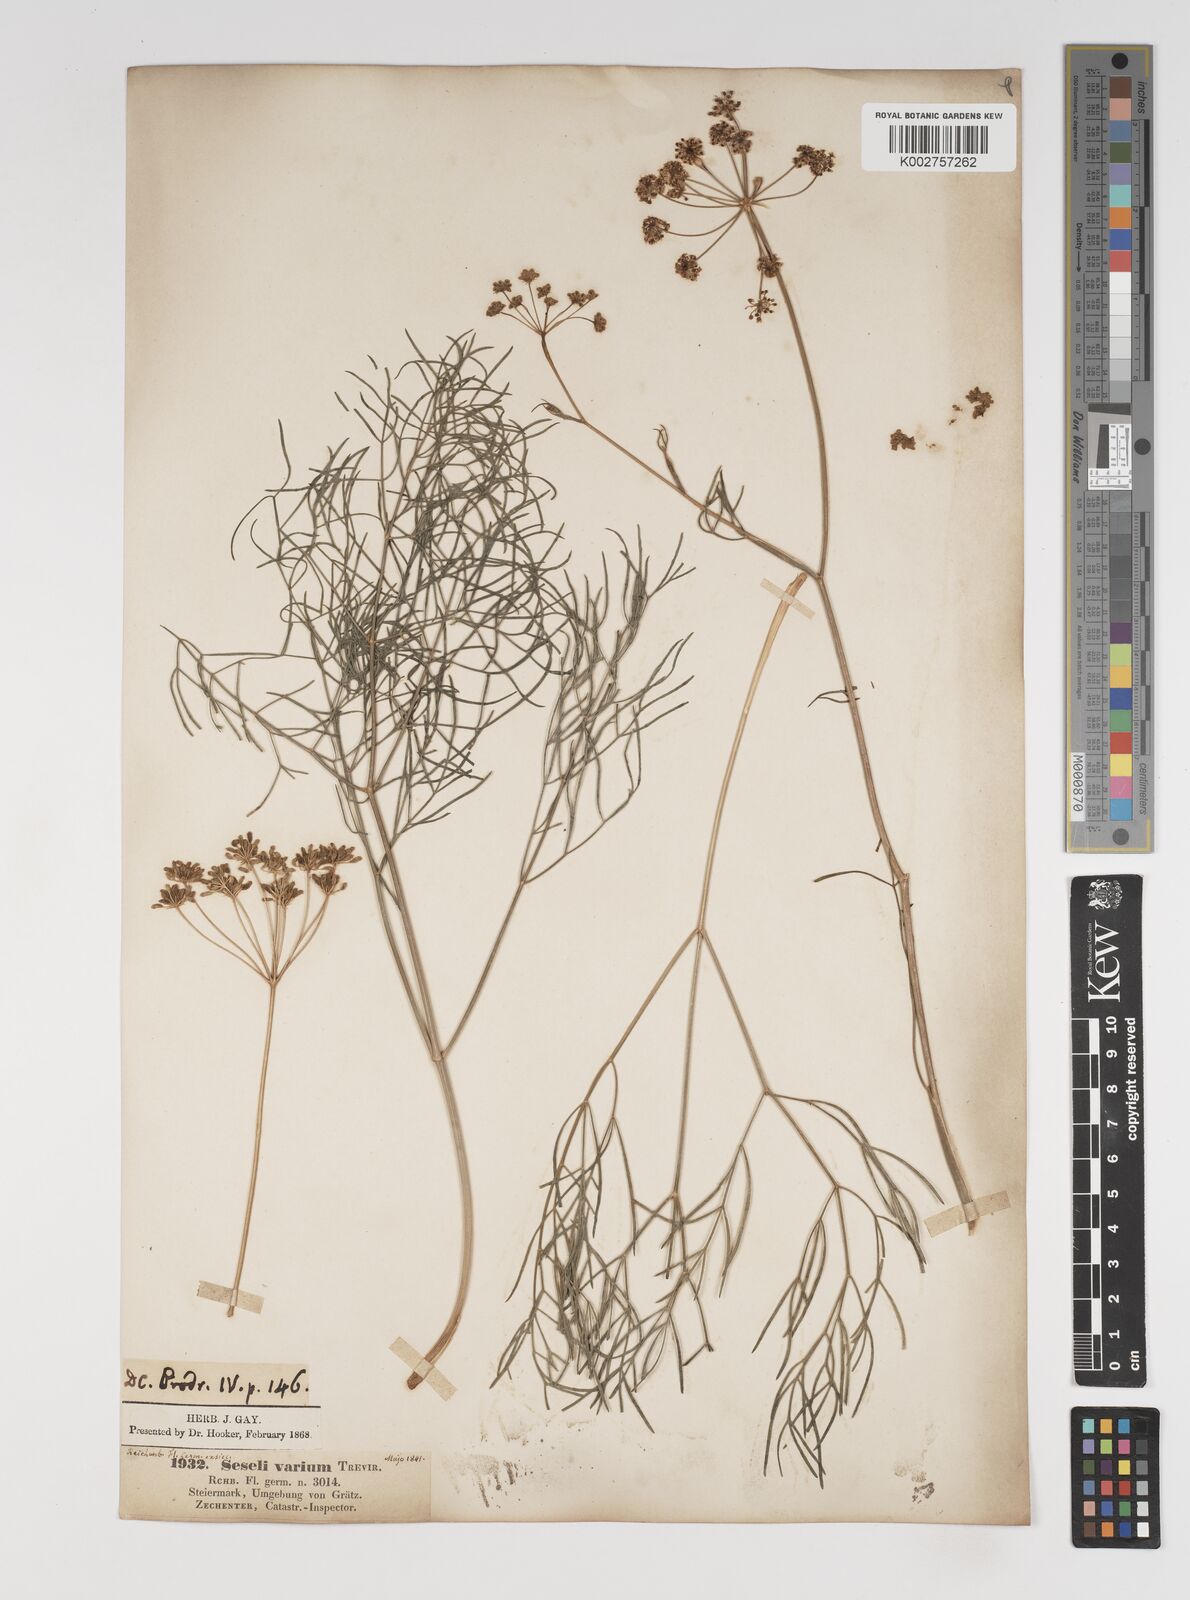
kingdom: Plantae
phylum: Tracheophyta
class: Magnoliopsida
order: Apiales
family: Apiaceae
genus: Seseli
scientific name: Seseli pallasii
